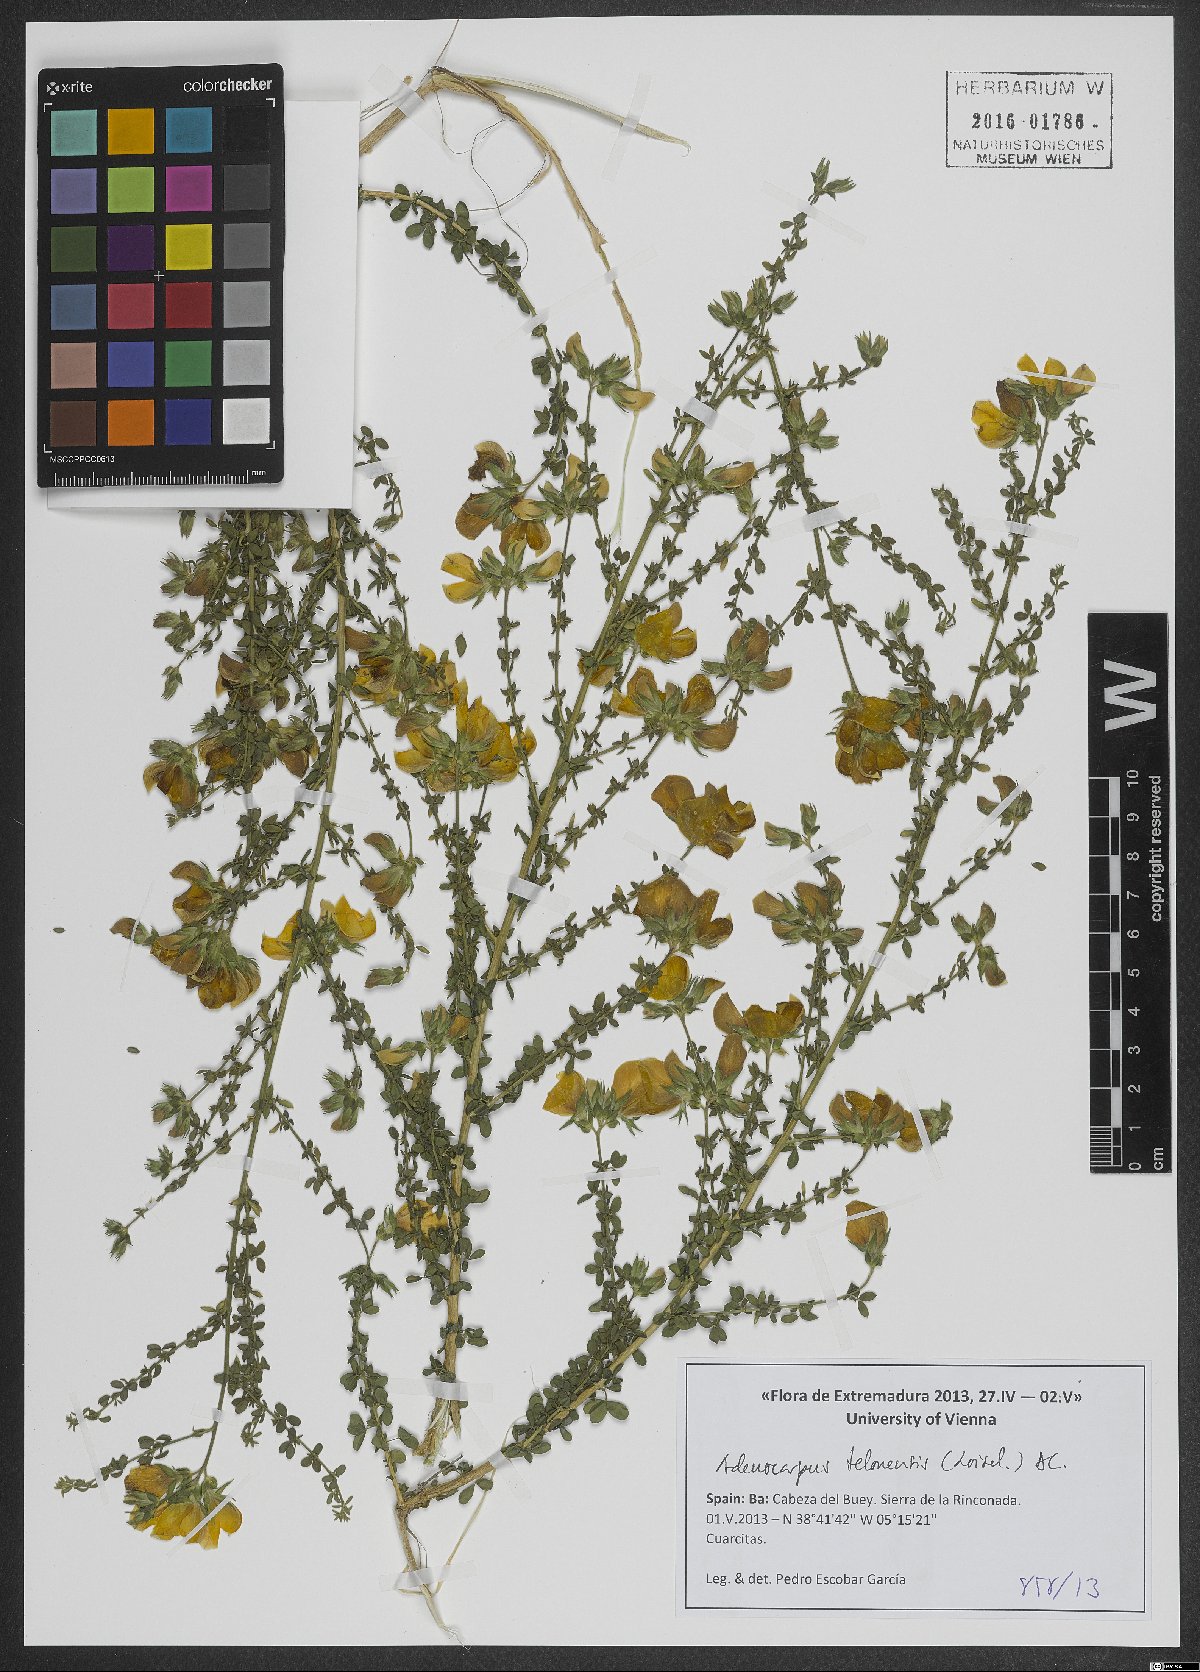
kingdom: Plantae
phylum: Tracheophyta
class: Magnoliopsida
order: Fabales
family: Fabaceae
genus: Adenocarpus
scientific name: Adenocarpus telonensis
